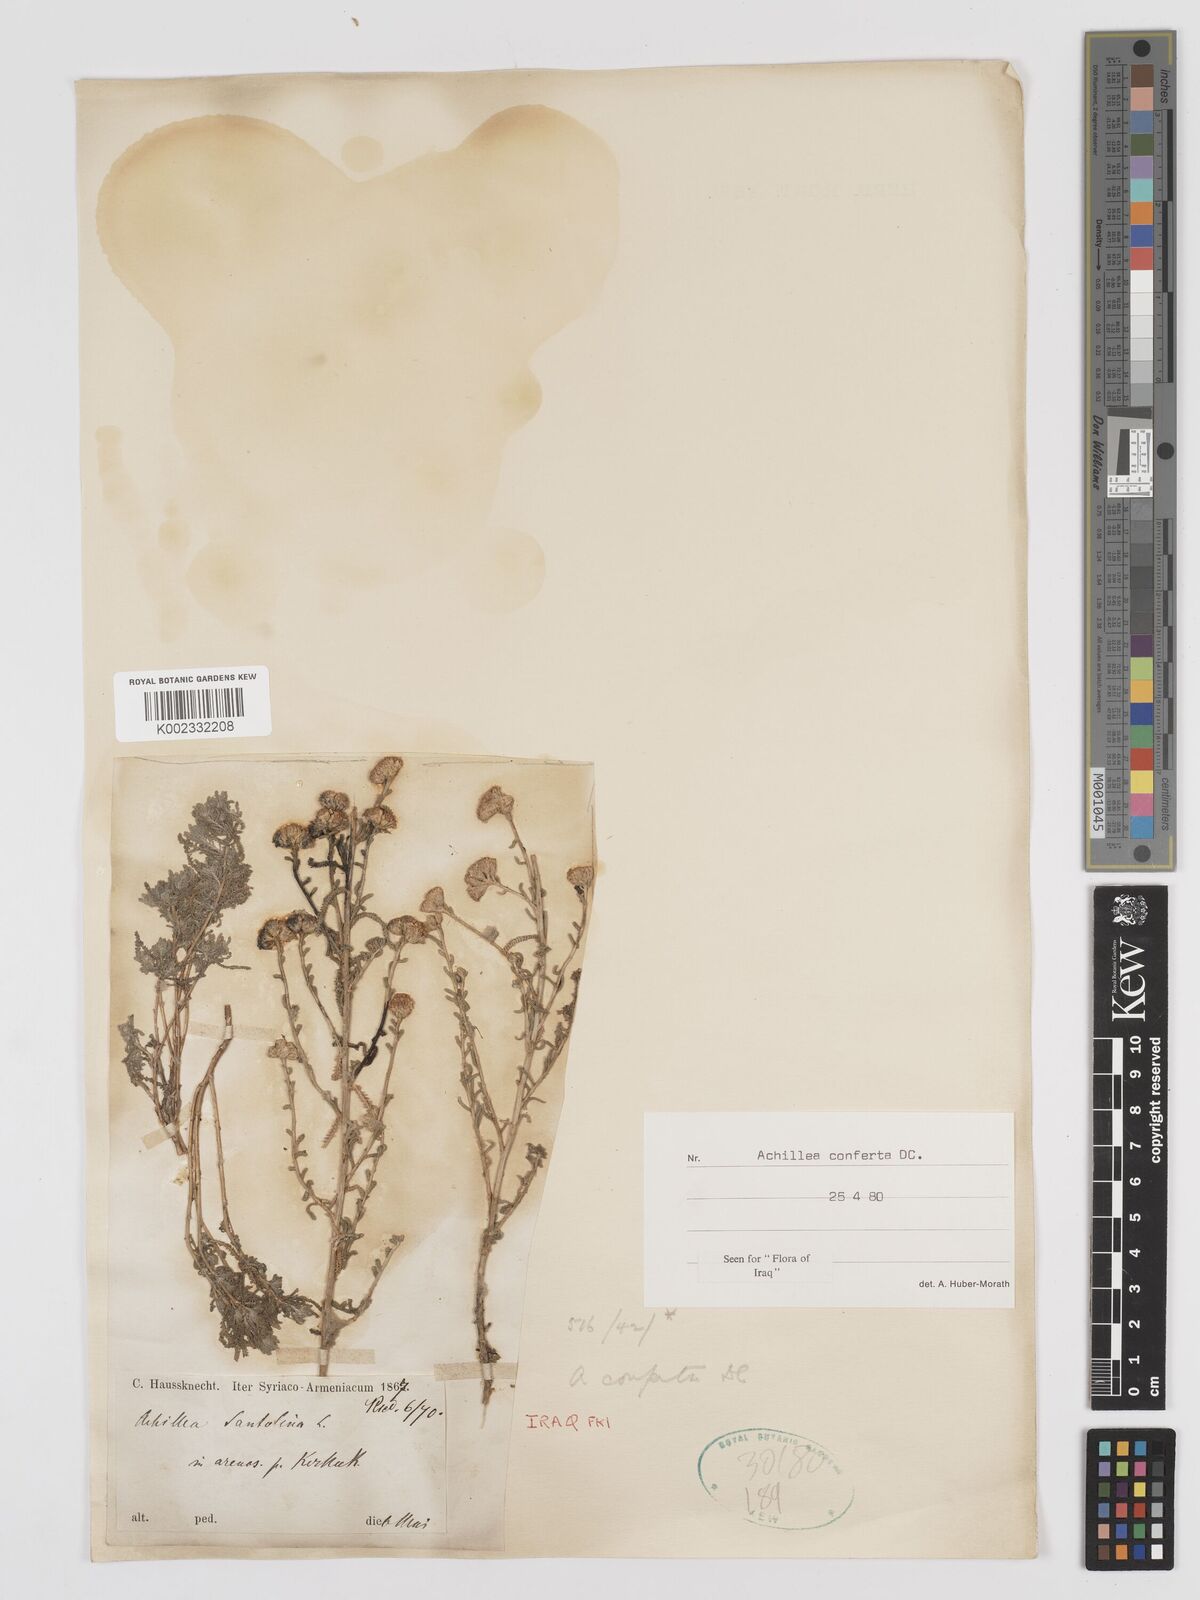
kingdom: Plantae
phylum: Tracheophyta
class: Magnoliopsida
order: Asterales
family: Asteraceae
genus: Achillea
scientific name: Achillea conferta
